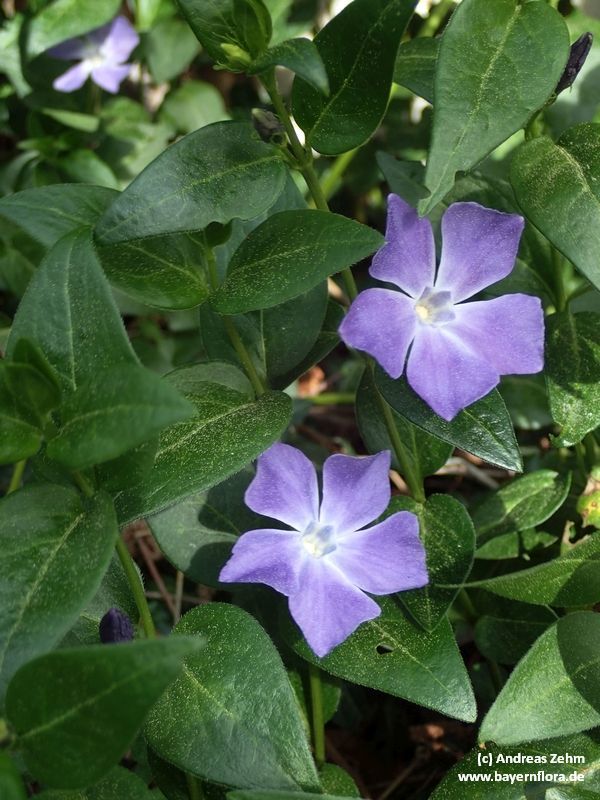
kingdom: Plantae
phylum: Tracheophyta
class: Magnoliopsida
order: Gentianales
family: Apocynaceae
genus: Vinca
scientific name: Vinca major
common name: Greater periwinkle
